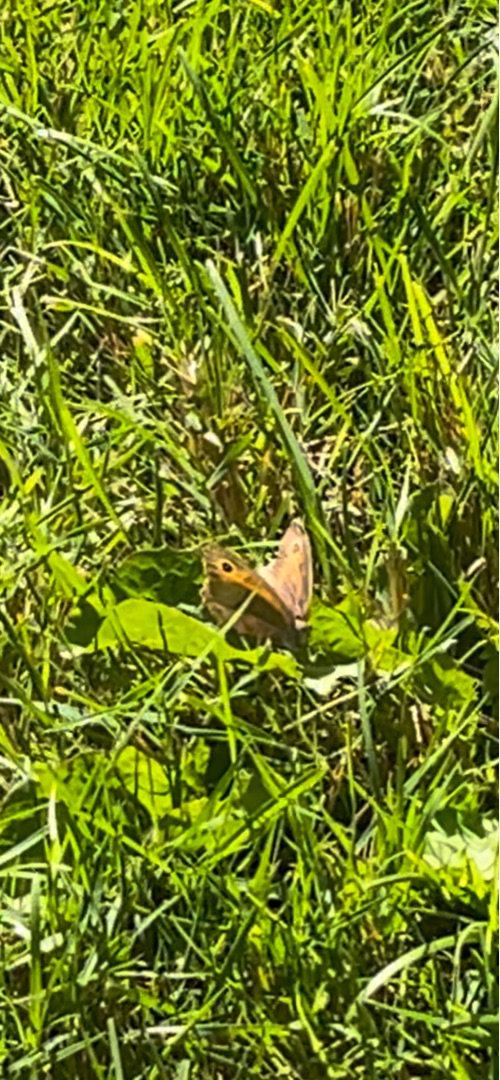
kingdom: Animalia
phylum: Arthropoda
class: Insecta
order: Lepidoptera
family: Nymphalidae
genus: Maniola
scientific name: Maniola jurtina
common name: Græsrandøje
